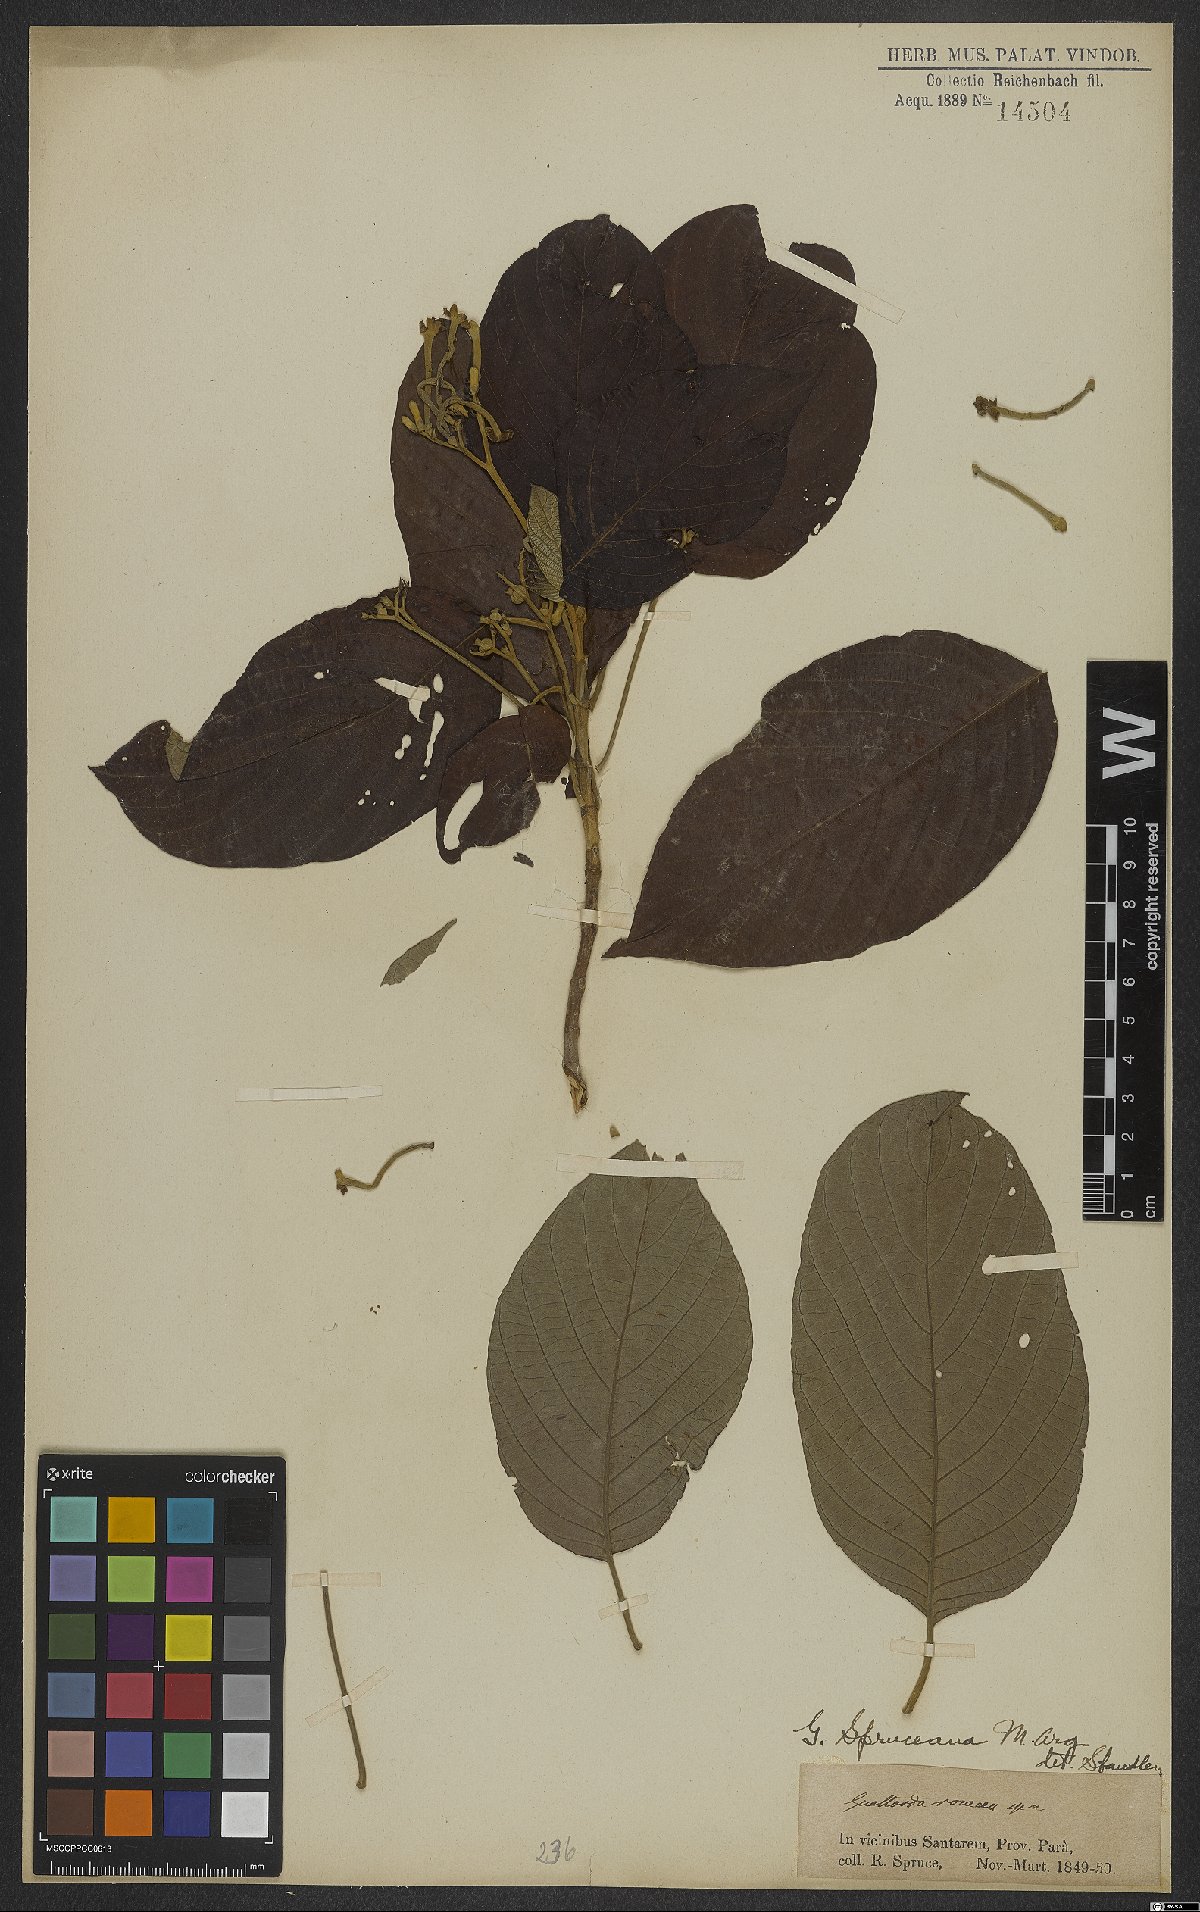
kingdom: Plantae
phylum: Tracheophyta
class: Magnoliopsida
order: Gentianales
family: Rubiaceae
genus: Guettarda
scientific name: Guettarda spruceana
